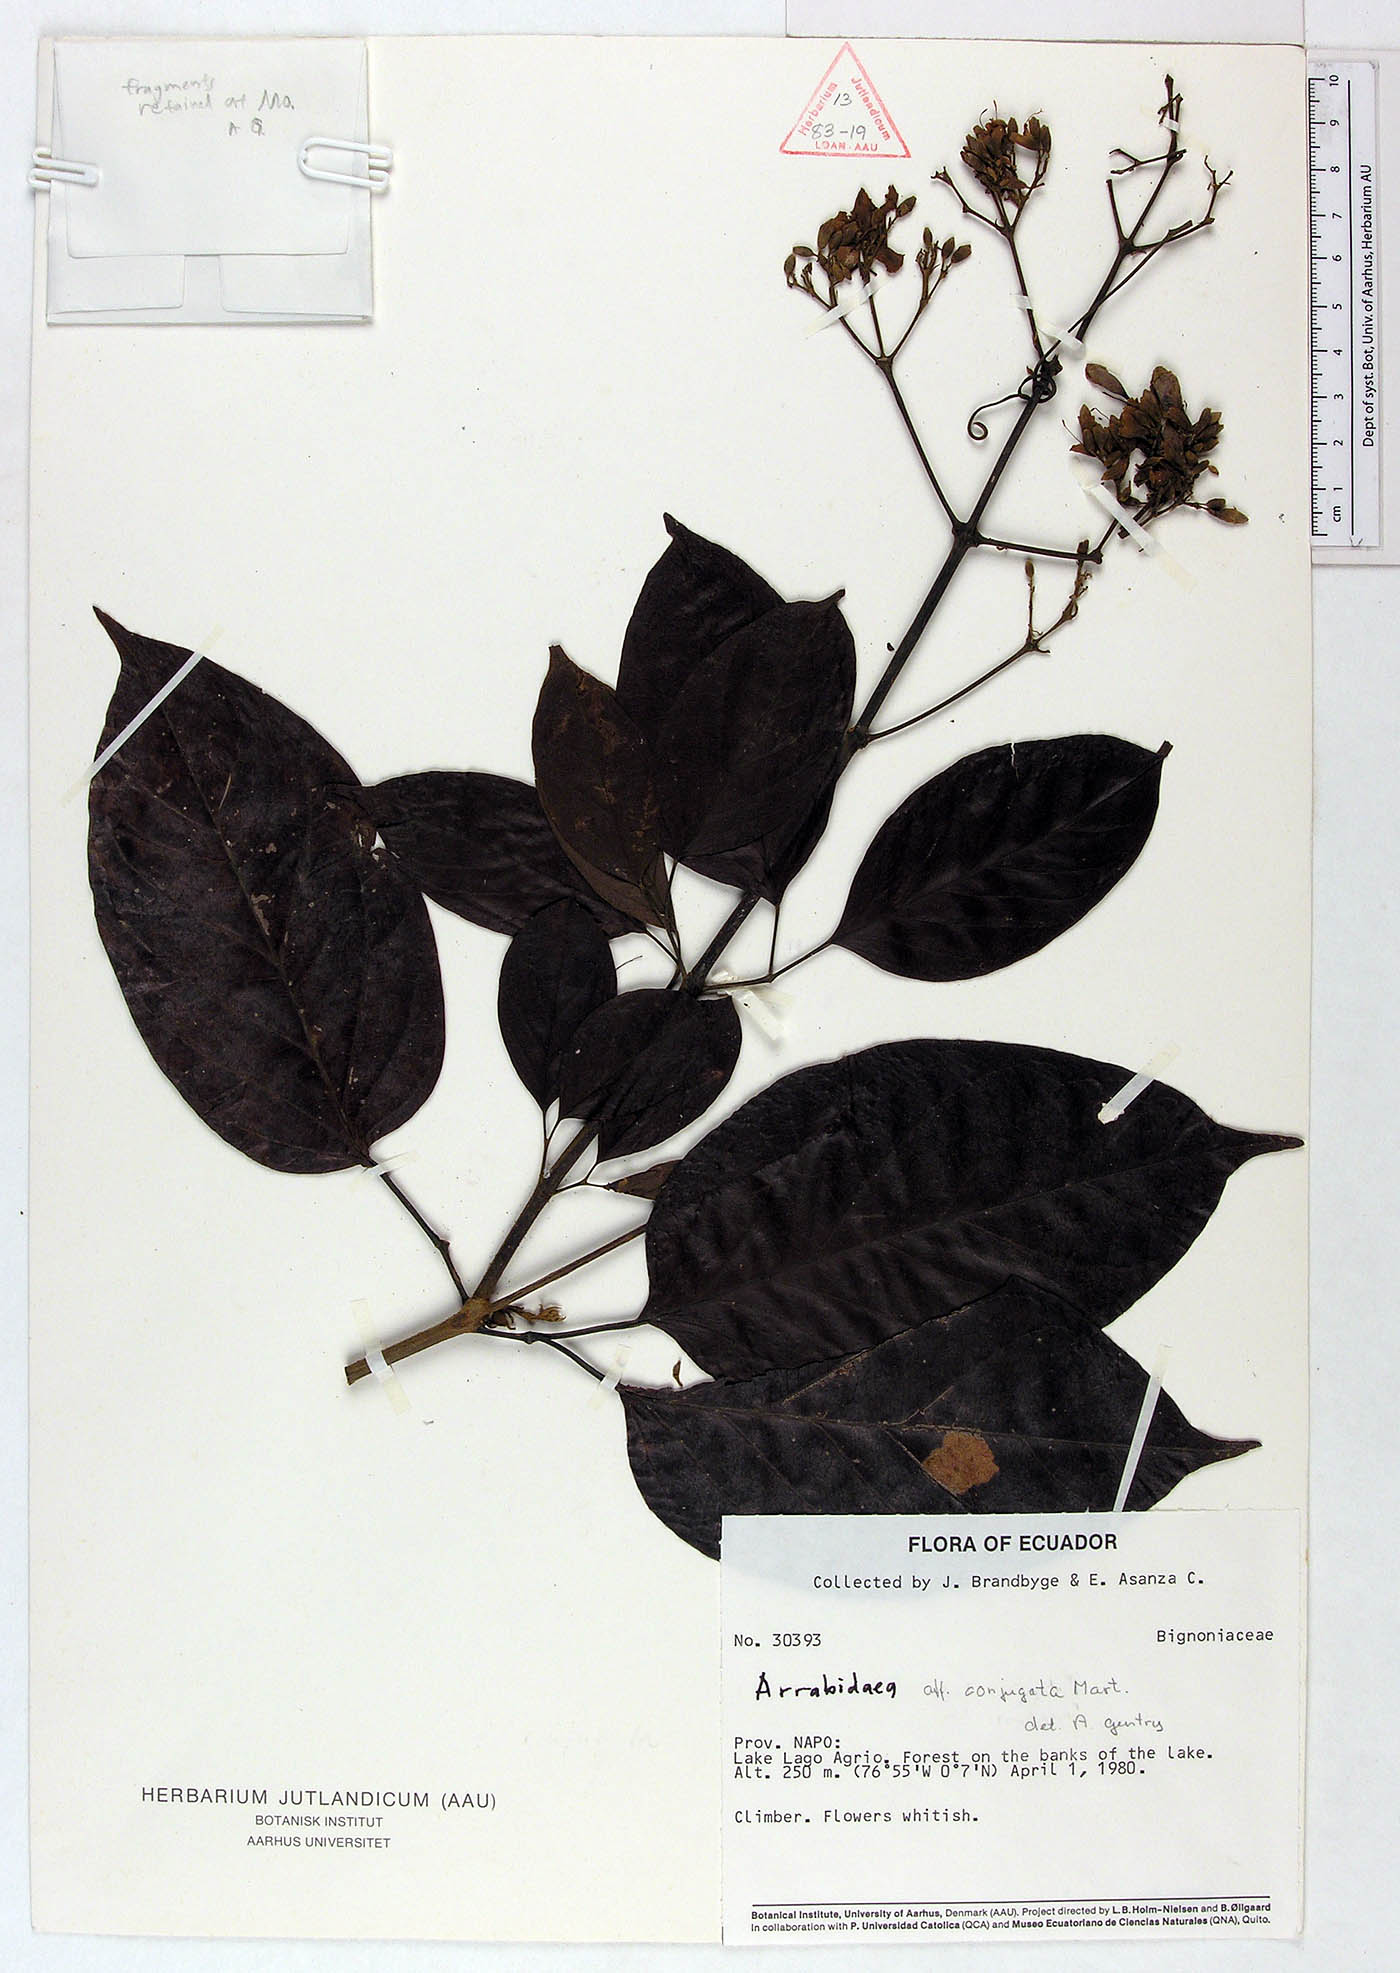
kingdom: Plantae
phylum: Tracheophyta
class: Magnoliopsida
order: Lamiales
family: Bignoniaceae
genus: Tanaecium
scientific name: Tanaecium affine
